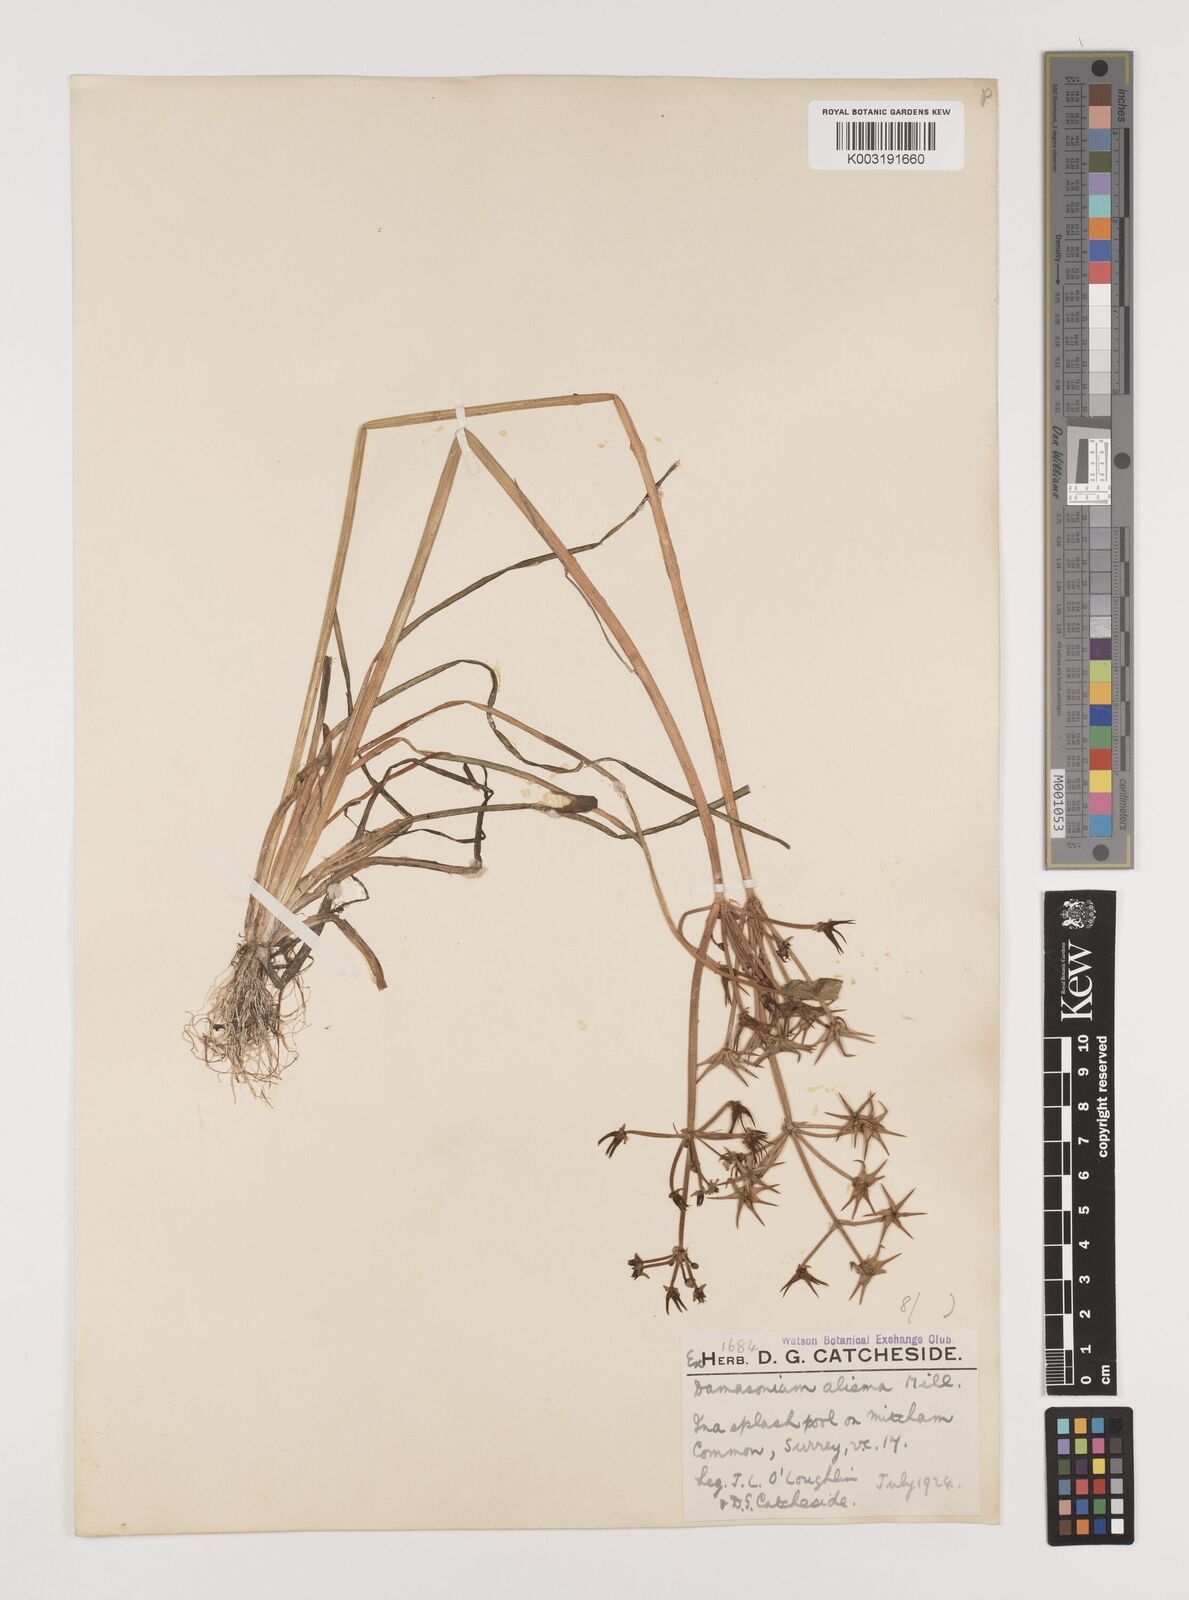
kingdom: Plantae
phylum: Tracheophyta
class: Liliopsida
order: Alismatales
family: Alismataceae
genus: Damasonium
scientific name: Damasonium alisma
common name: Starfruit
